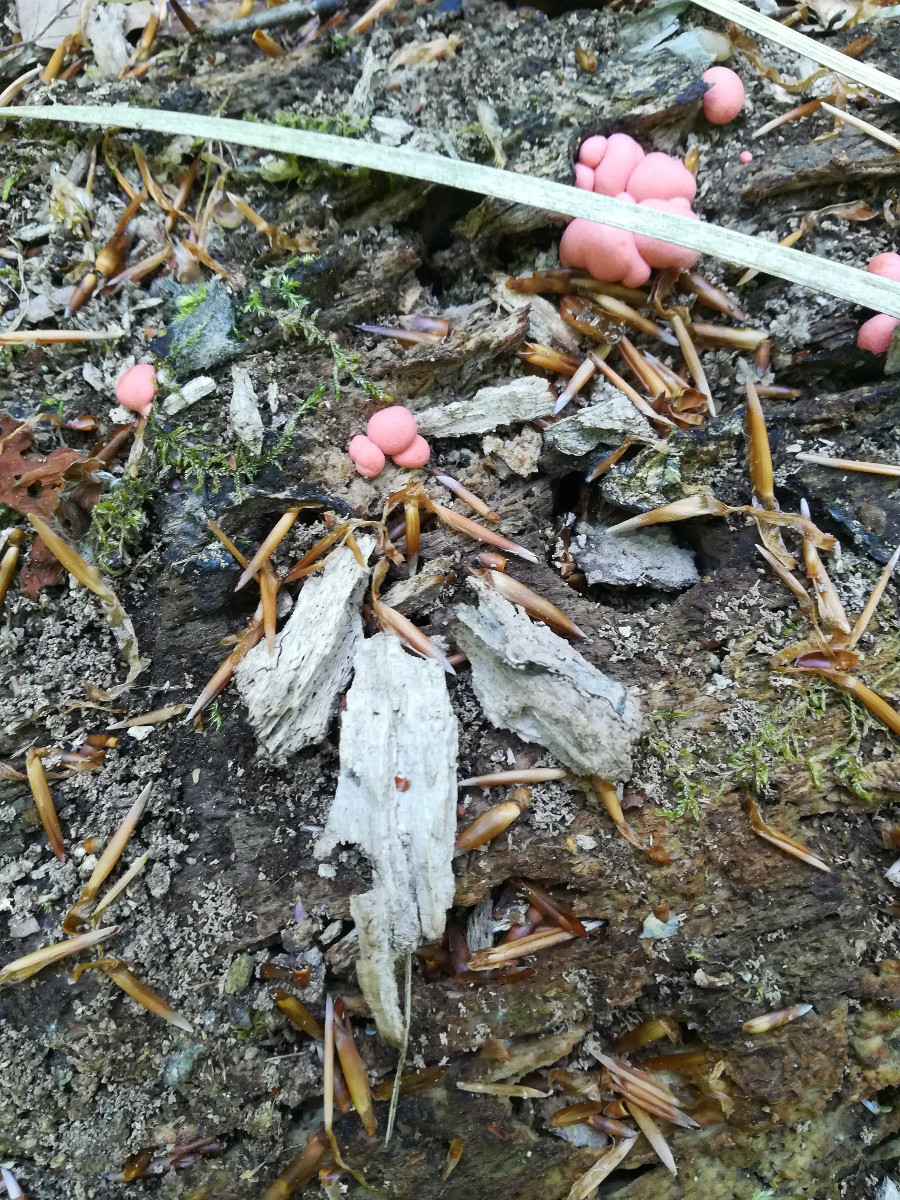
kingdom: Protozoa
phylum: Mycetozoa
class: Myxomycetes
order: Cribrariales
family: Tubiferaceae
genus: Lycogala
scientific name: Lycogala epidendrum
